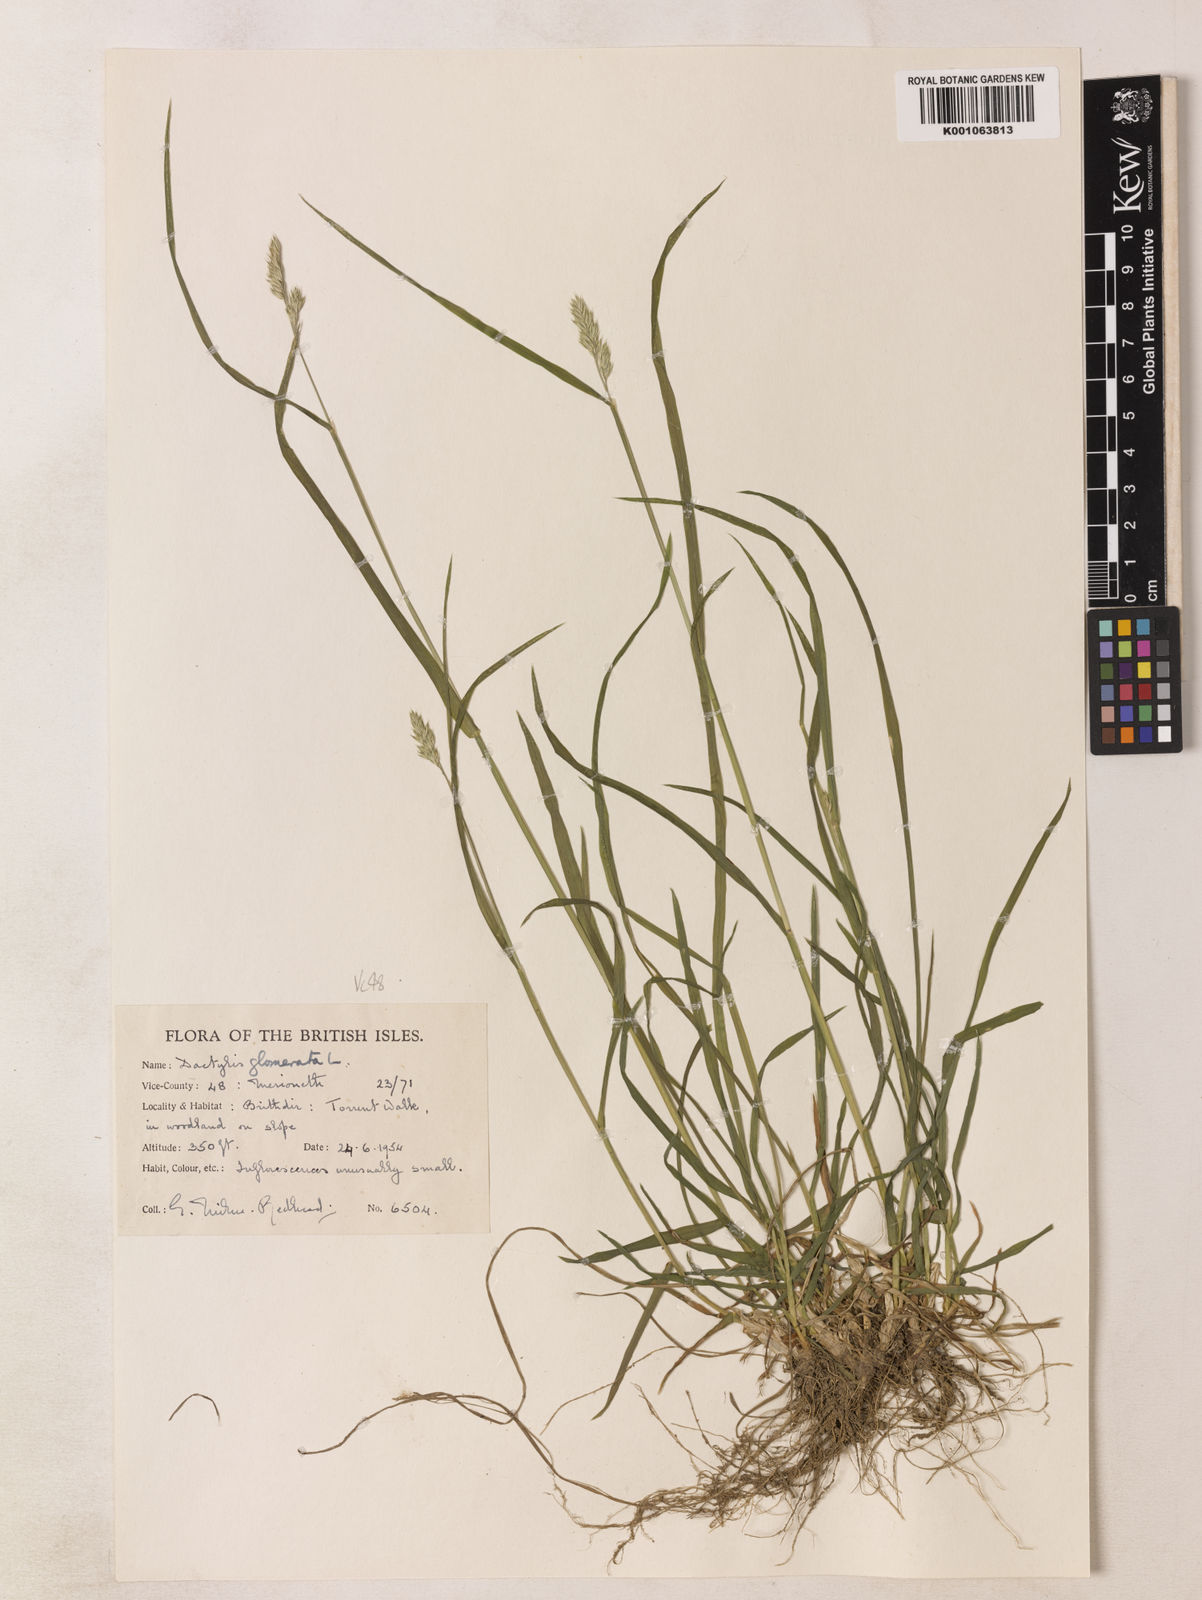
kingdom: Plantae
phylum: Tracheophyta
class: Liliopsida
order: Poales
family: Poaceae
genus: Dactylis
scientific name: Dactylis glomerata
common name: Orchardgrass
